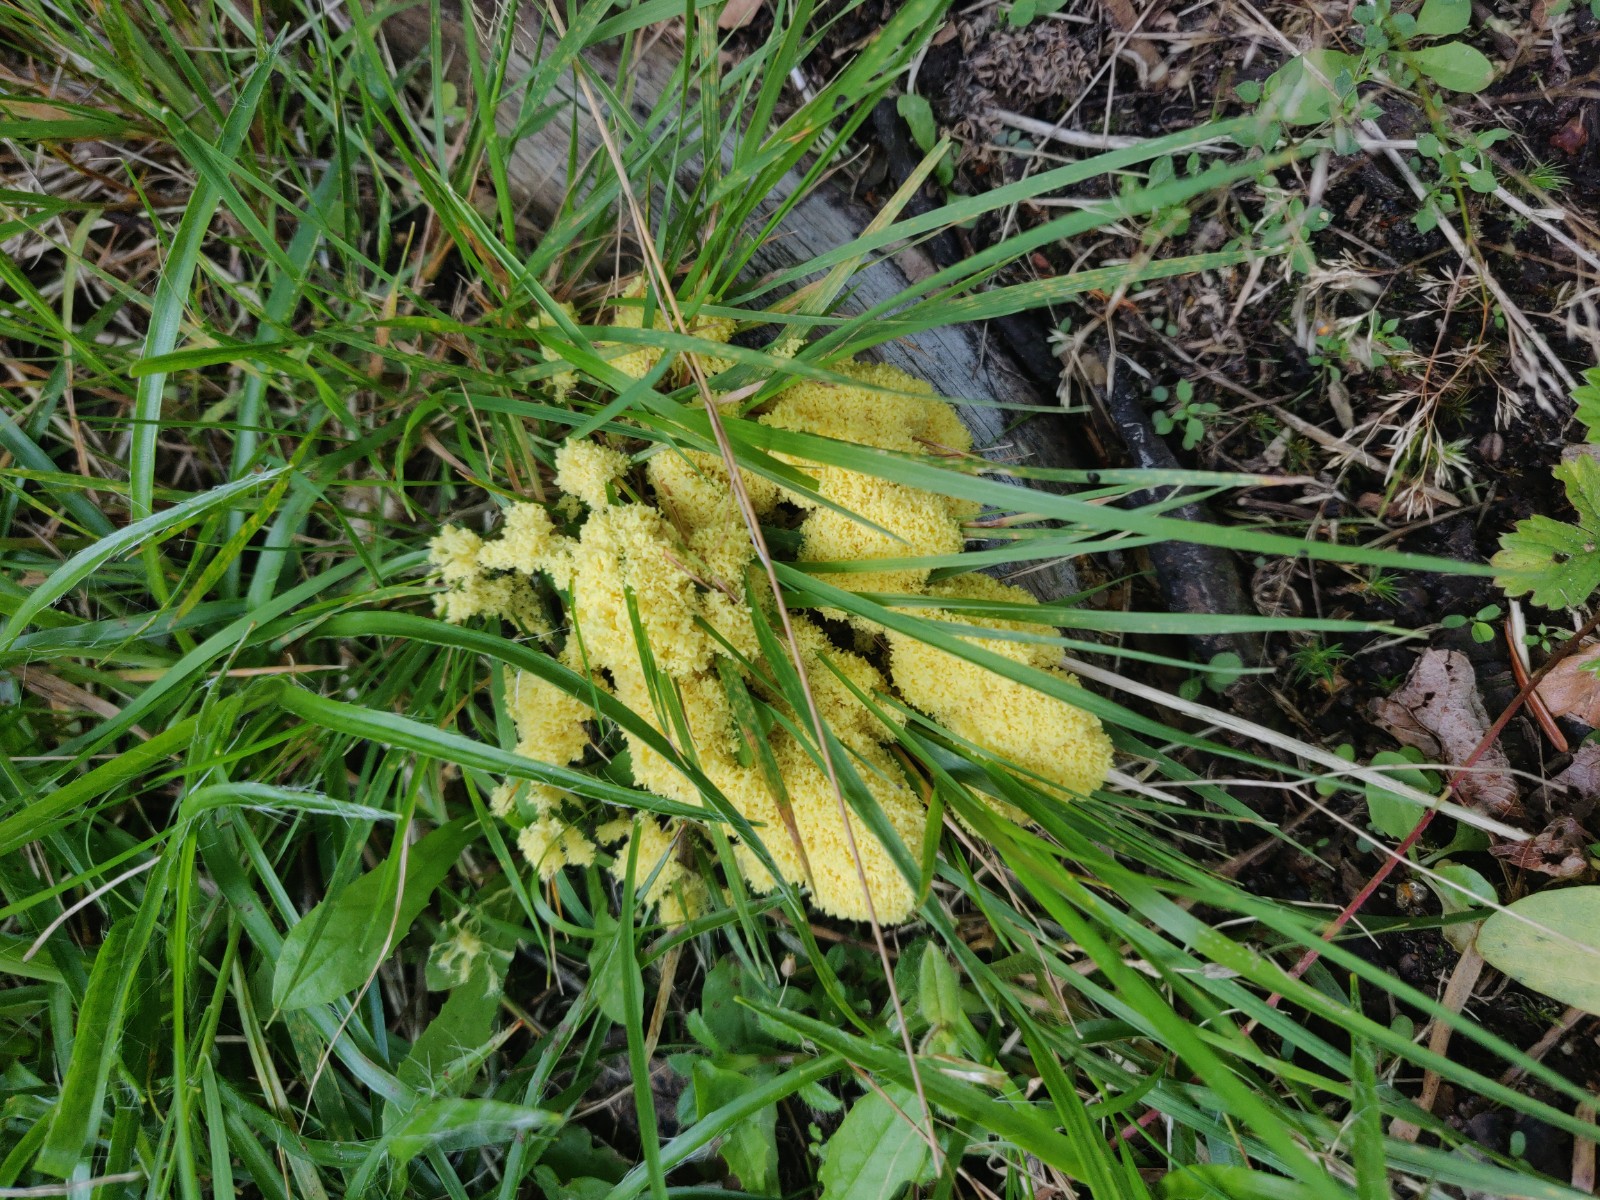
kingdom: Protozoa
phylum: Mycetozoa
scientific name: Mycetozoa
